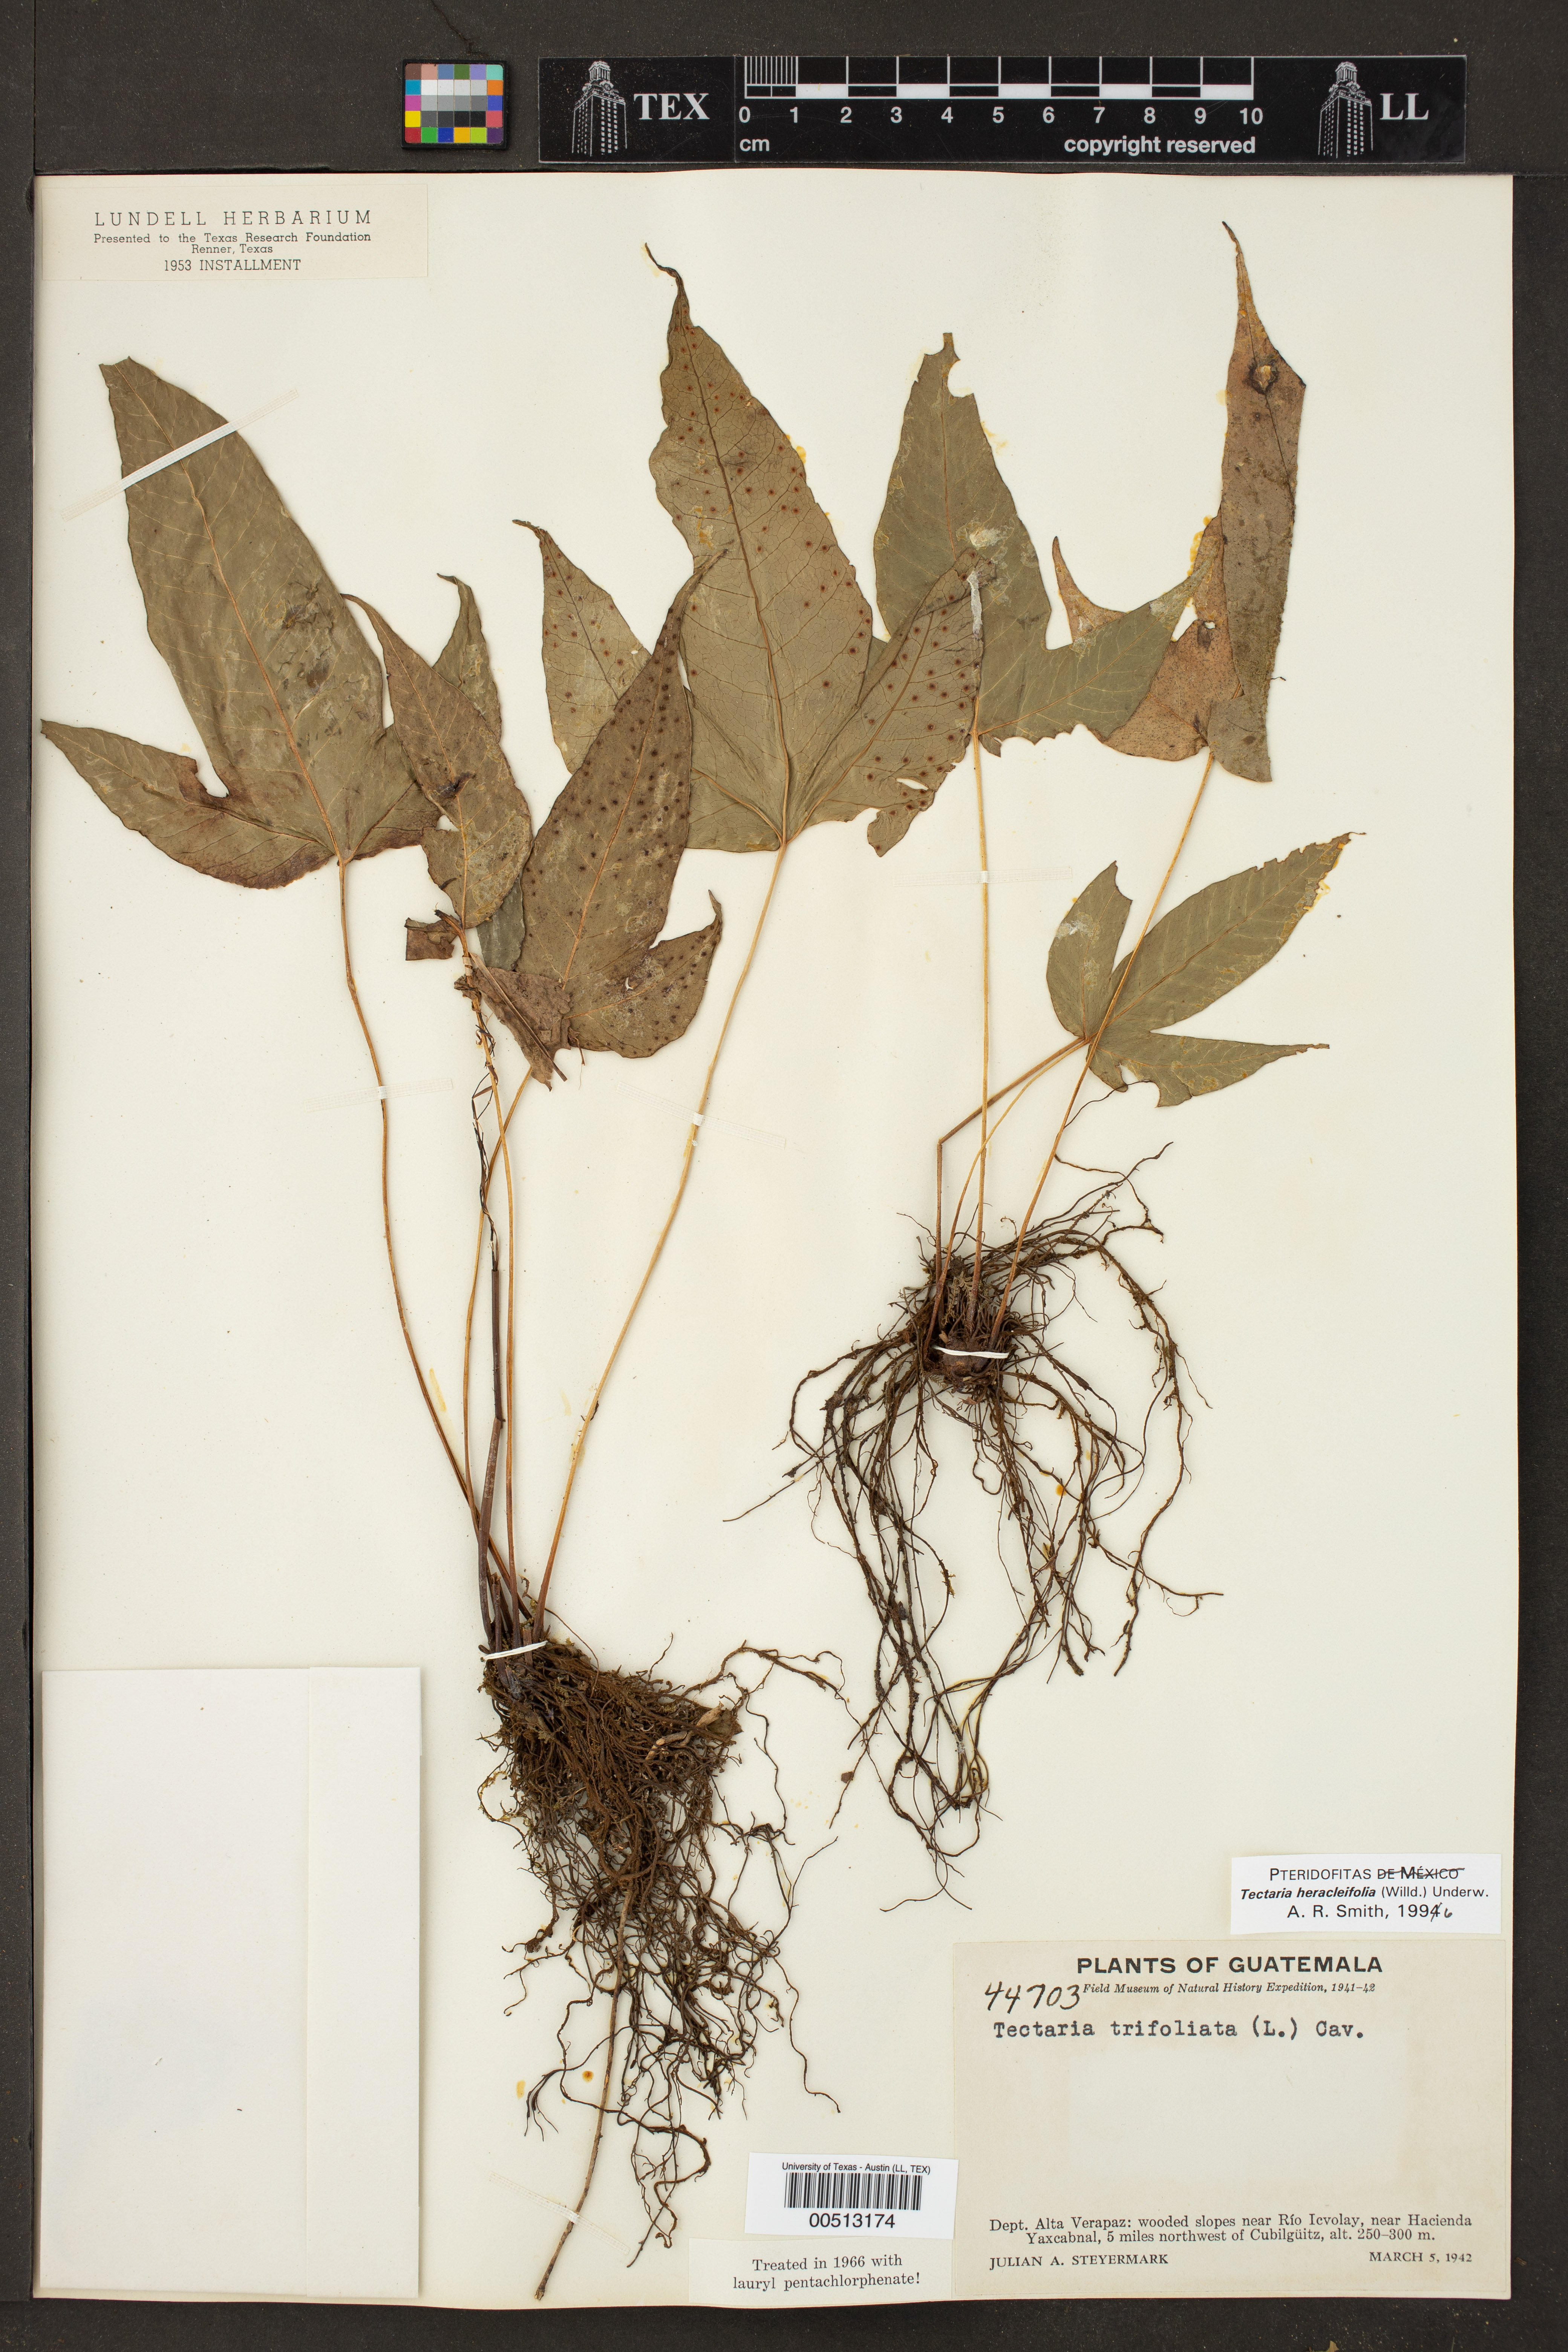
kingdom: Plantae
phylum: Tracheophyta
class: Polypodiopsida
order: Polypodiales
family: Tectariaceae
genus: Tectaria
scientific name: Tectaria heracleifolia
